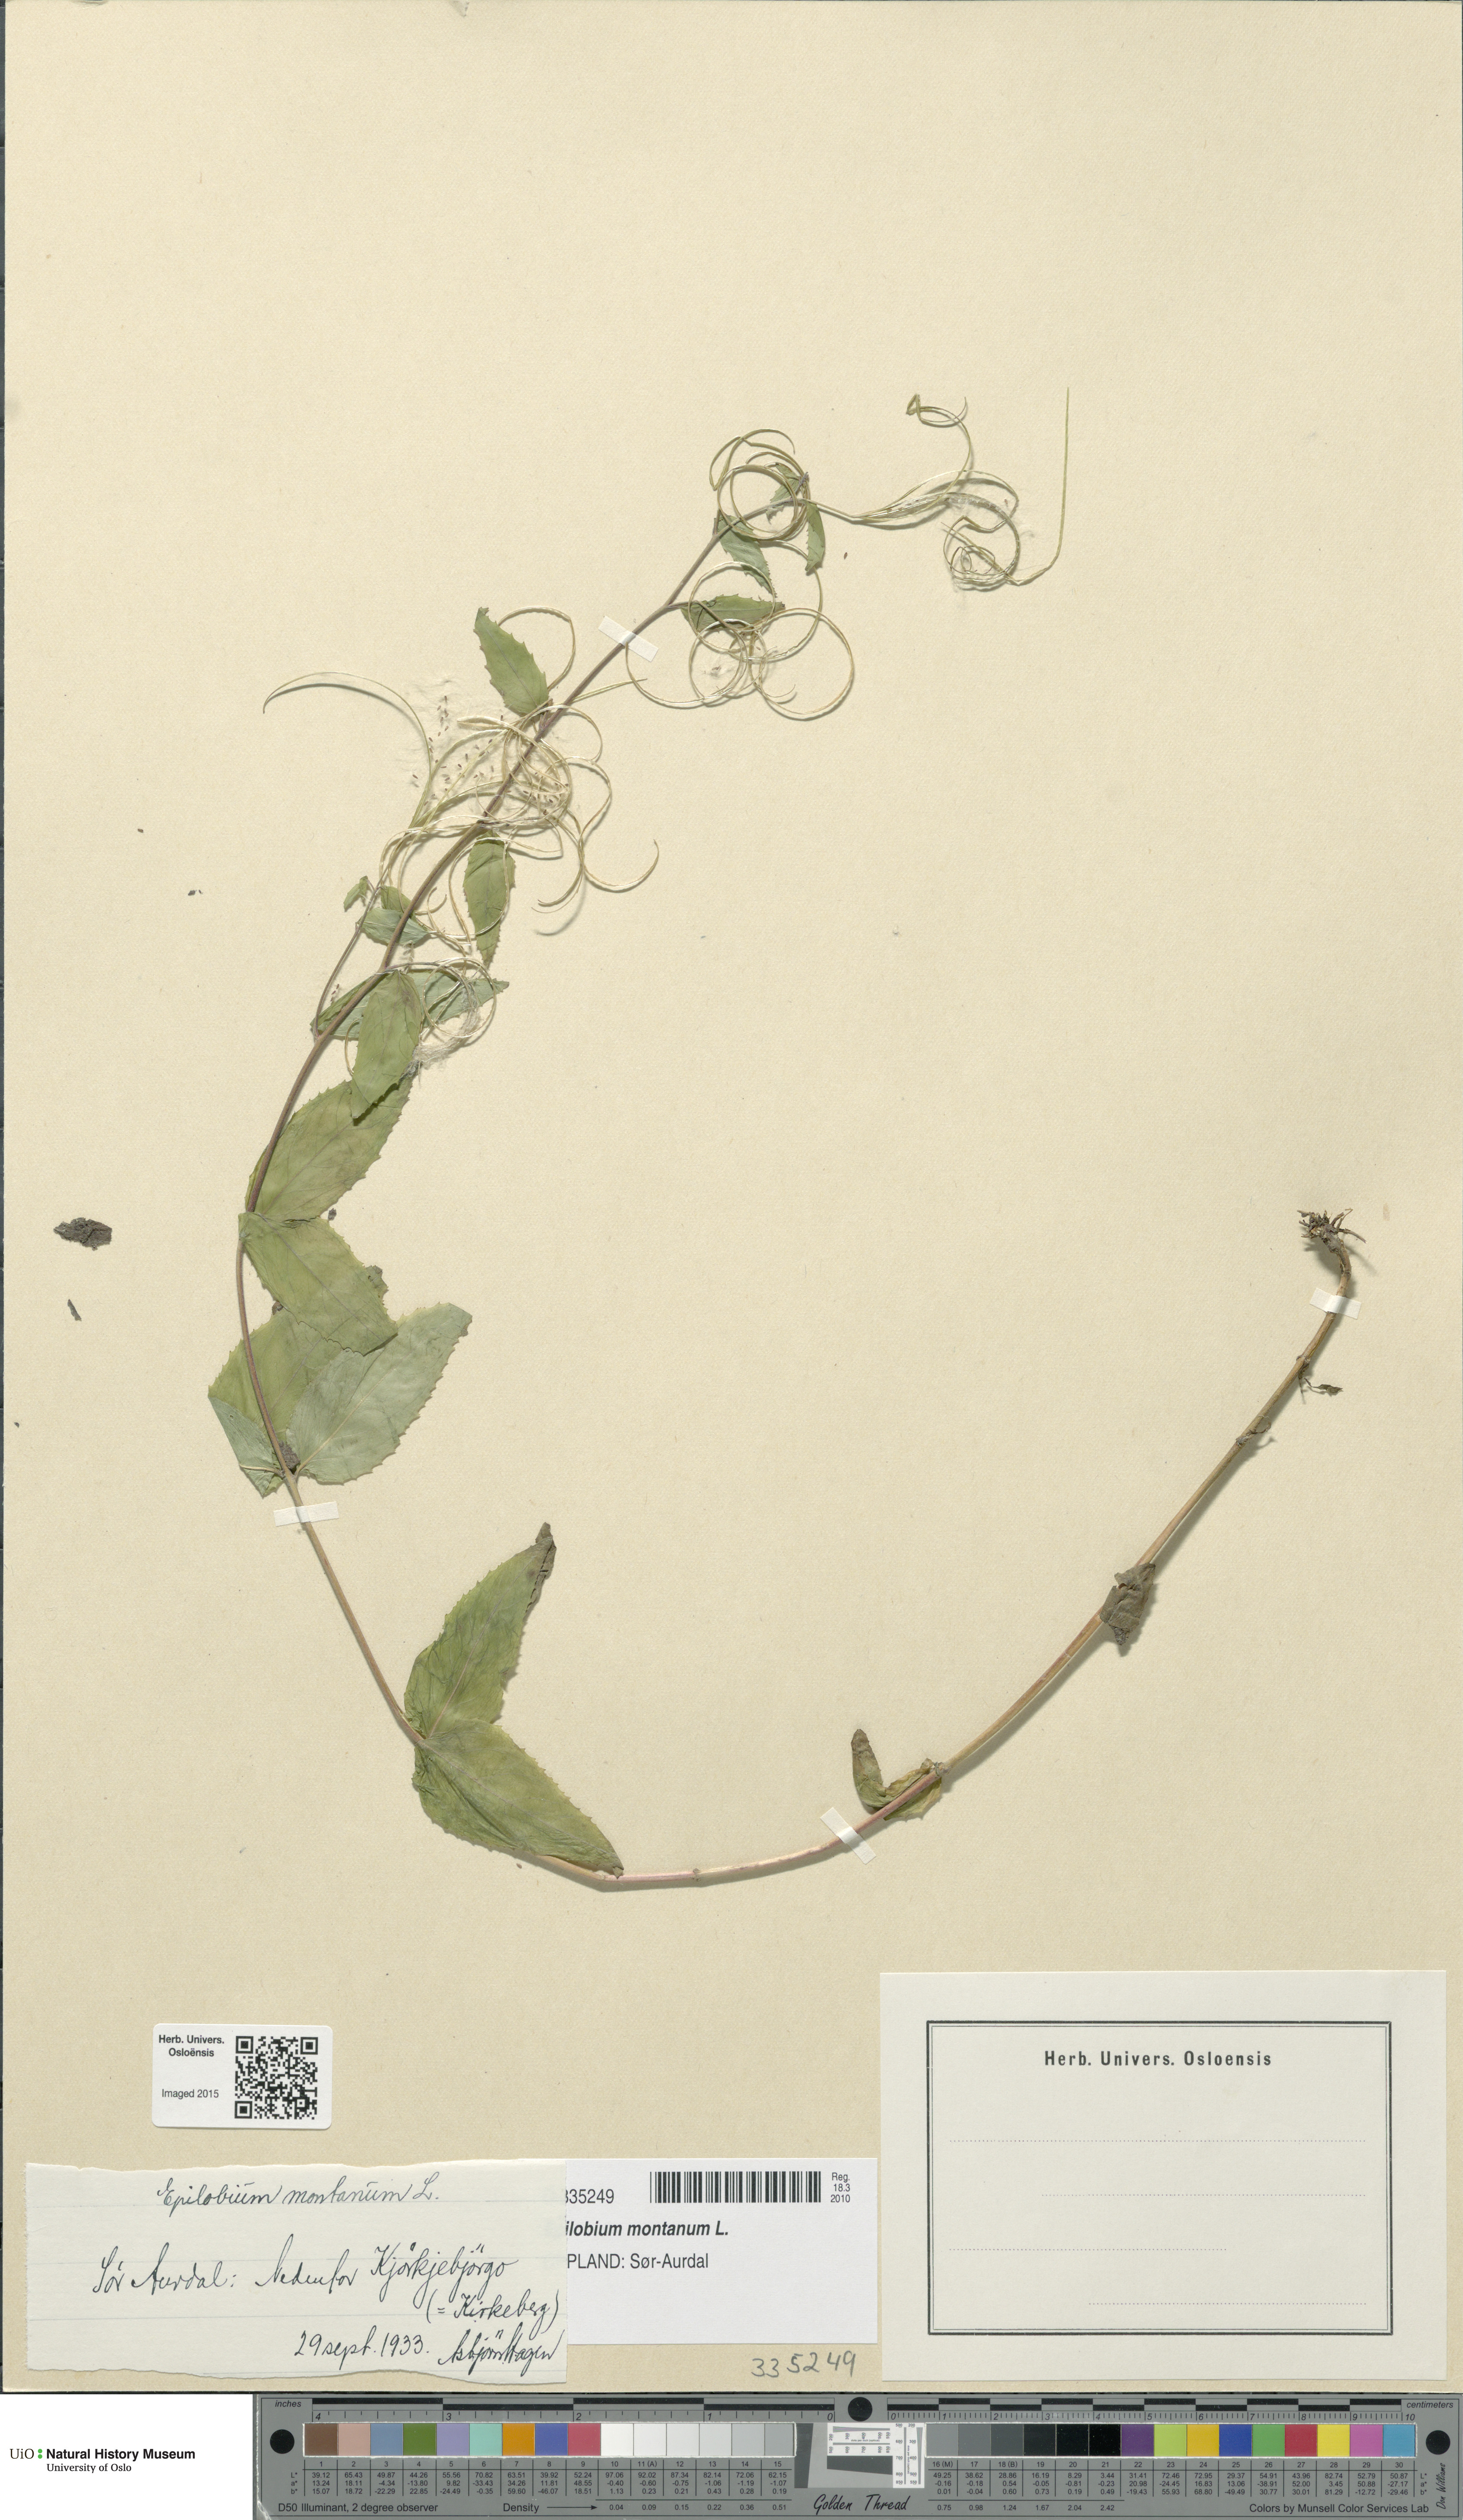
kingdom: Plantae
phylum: Tracheophyta
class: Magnoliopsida
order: Myrtales
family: Onagraceae
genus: Epilobium
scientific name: Epilobium montanum
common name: Broad-leaved willowherb
